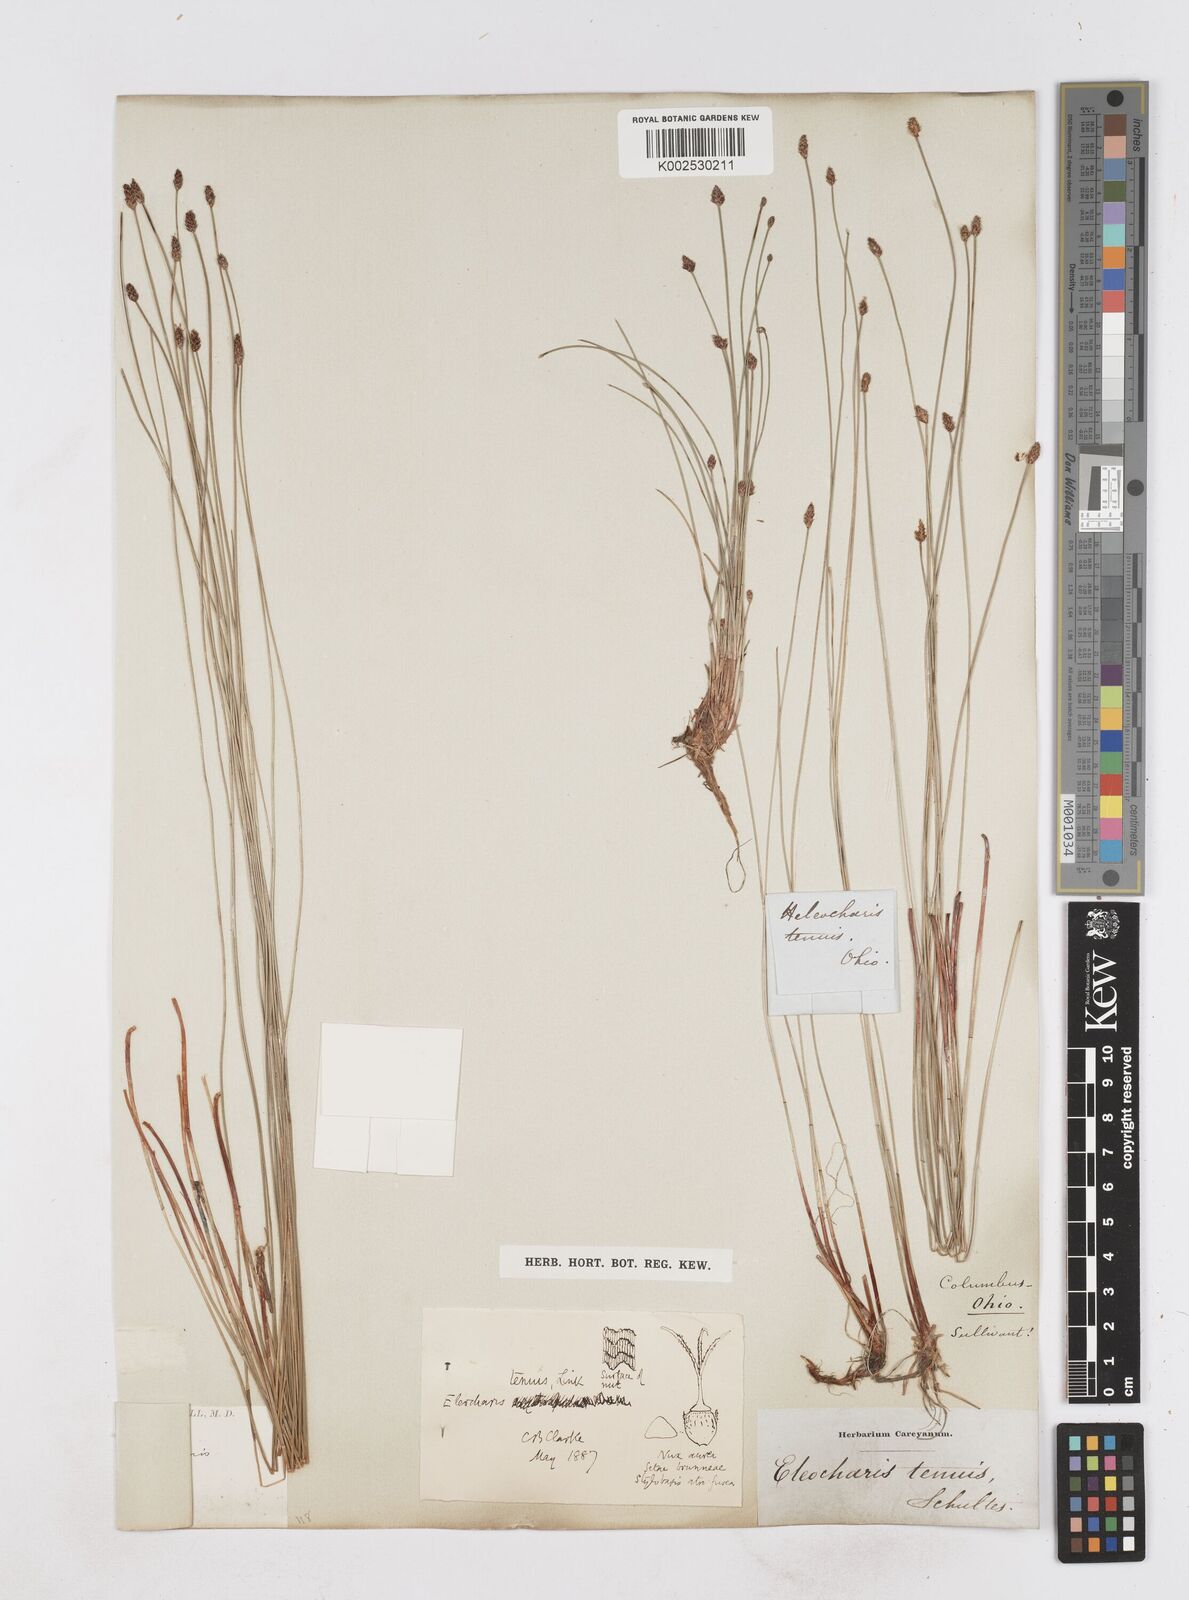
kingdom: Plantae
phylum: Tracheophyta
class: Liliopsida
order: Poales
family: Cyperaceae
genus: Eleocharis
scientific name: Eleocharis tenuis
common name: Dog's hair
